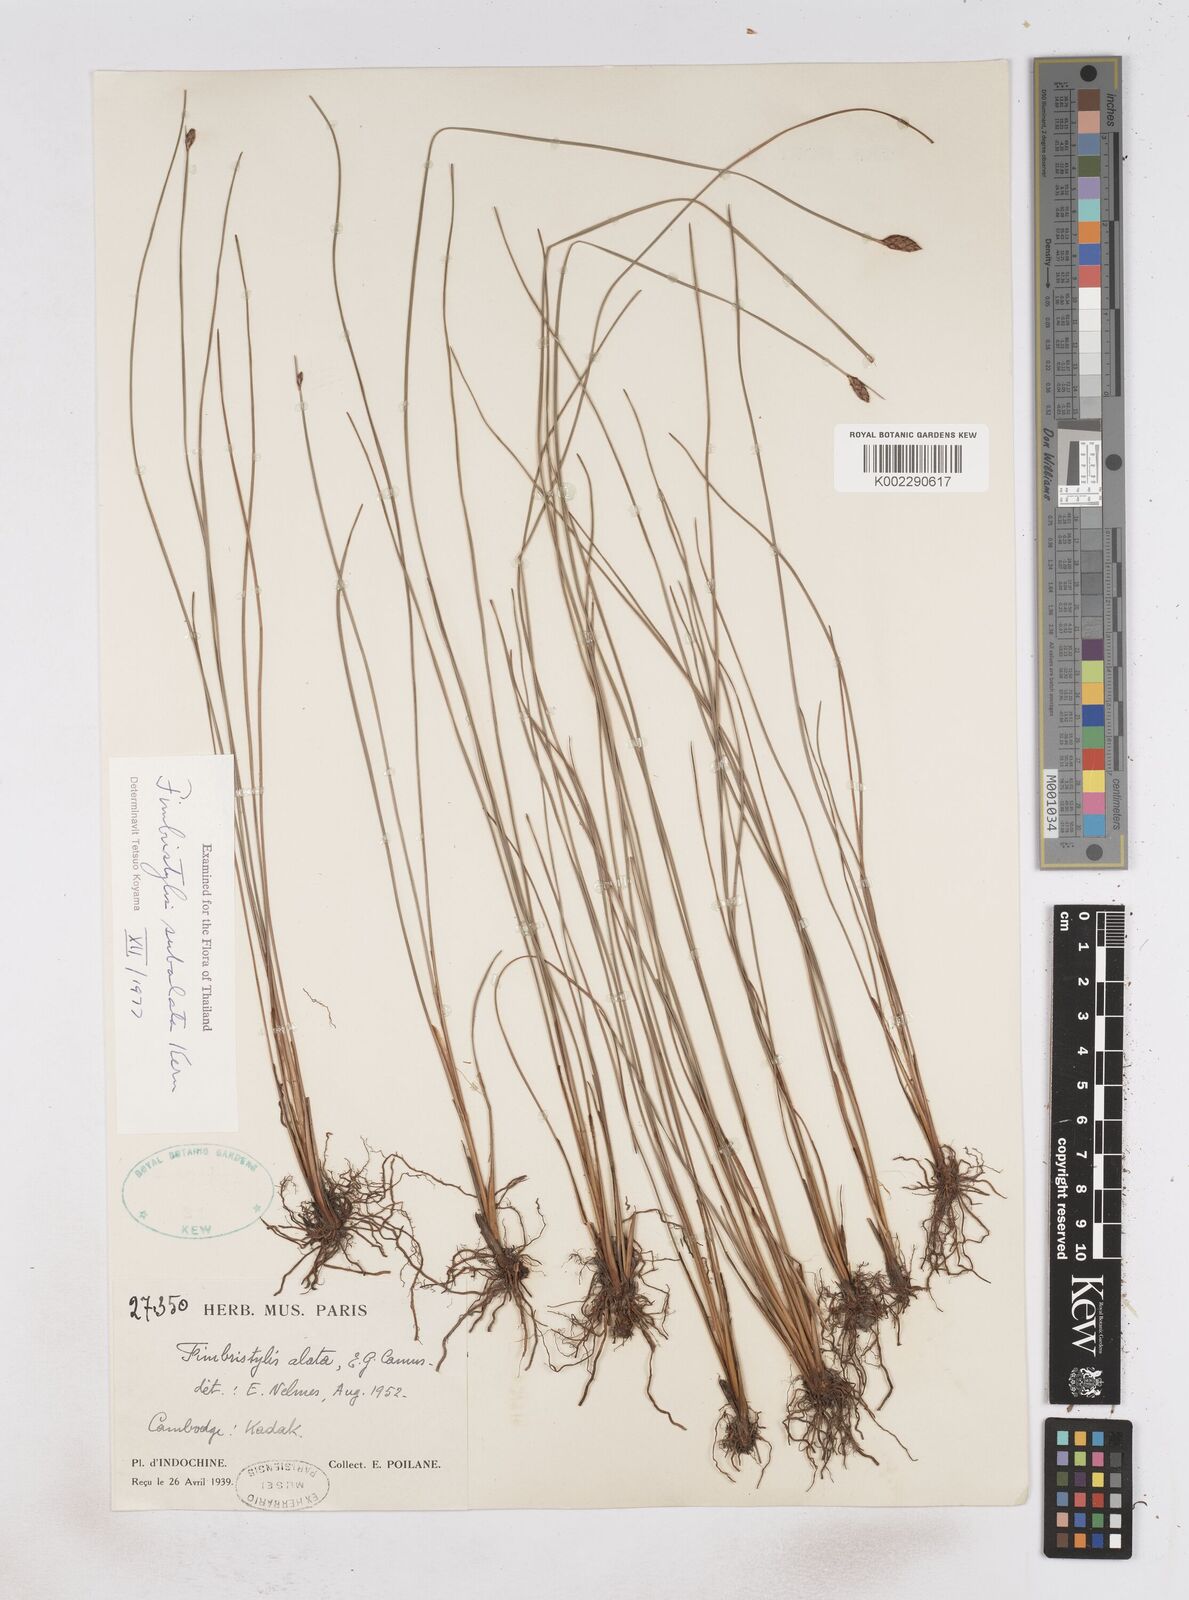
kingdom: Plantae
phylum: Tracheophyta
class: Liliopsida
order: Poales
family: Cyperaceae
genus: Fimbristylis
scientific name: Fimbristylis subalata
